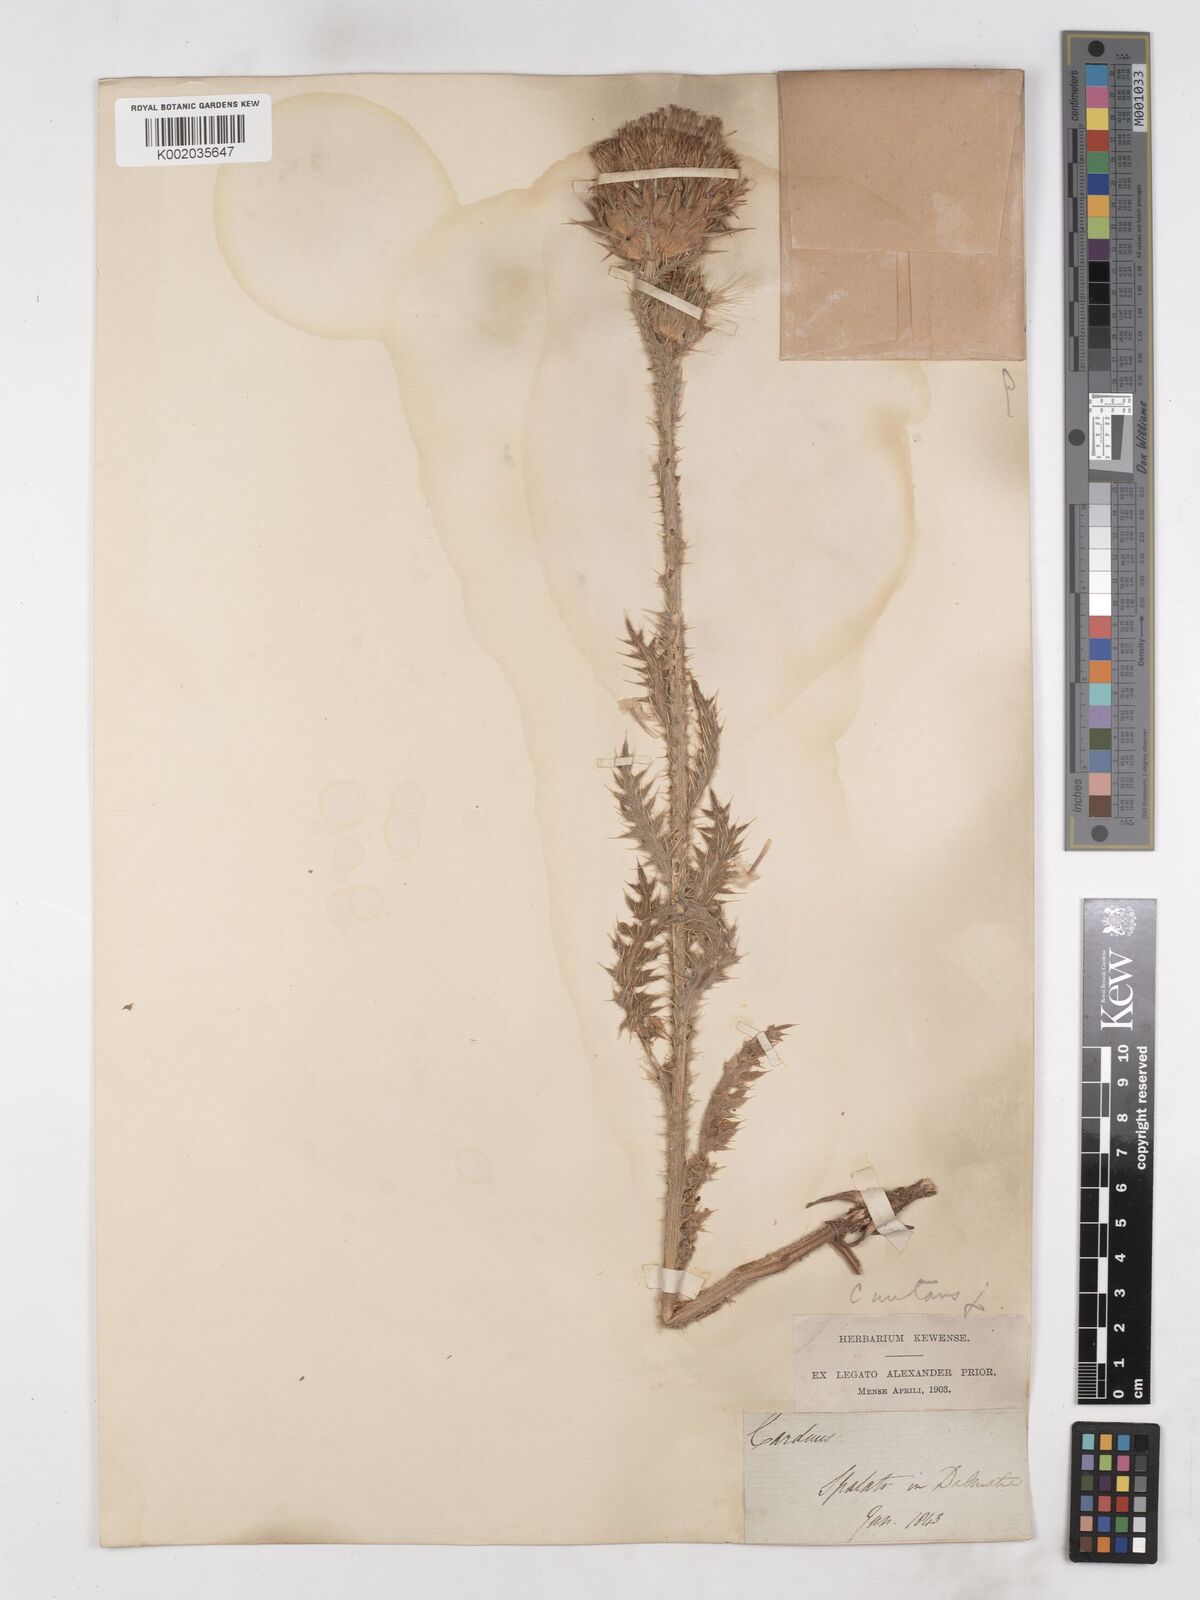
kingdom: Plantae
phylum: Tracheophyta
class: Magnoliopsida
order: Asterales
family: Asteraceae
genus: Carduus
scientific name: Carduus nutans
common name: Musk thistle
